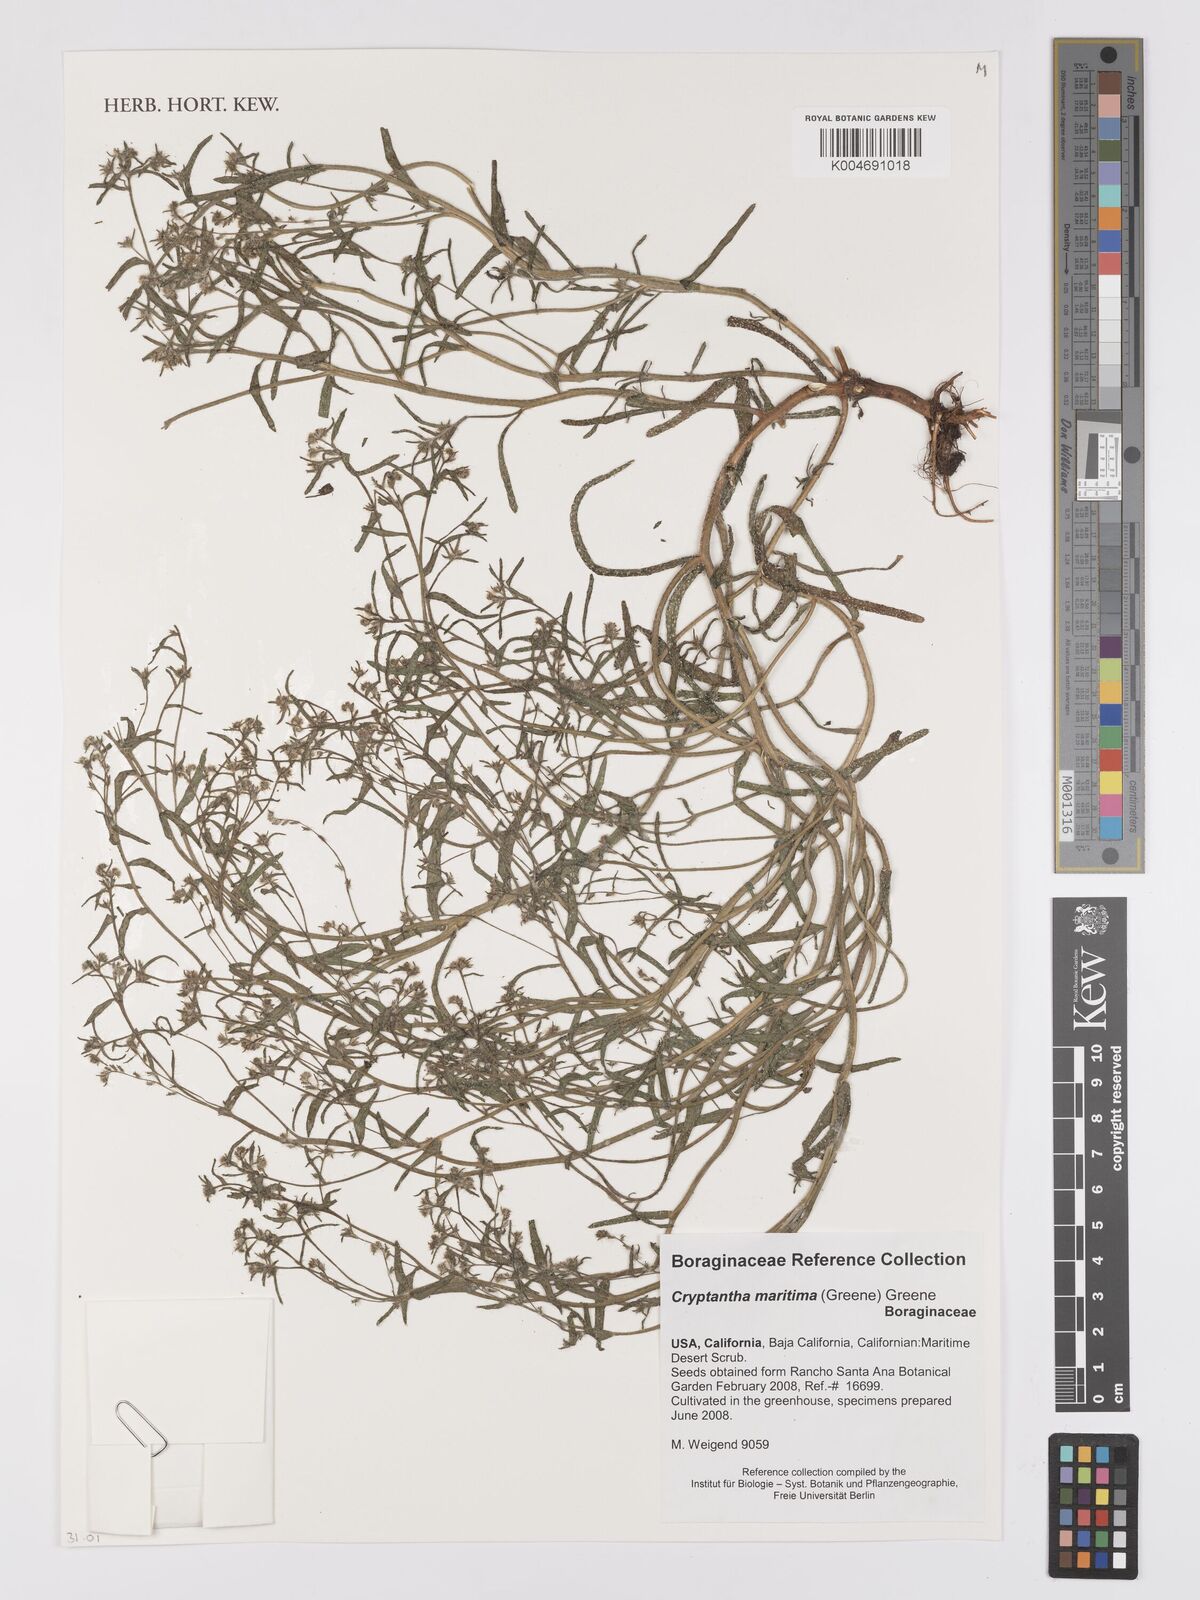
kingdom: Plantae
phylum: Tracheophyta
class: Magnoliopsida
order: Boraginales
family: Boraginaceae
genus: Cryptantha
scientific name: Cryptantha maritima
